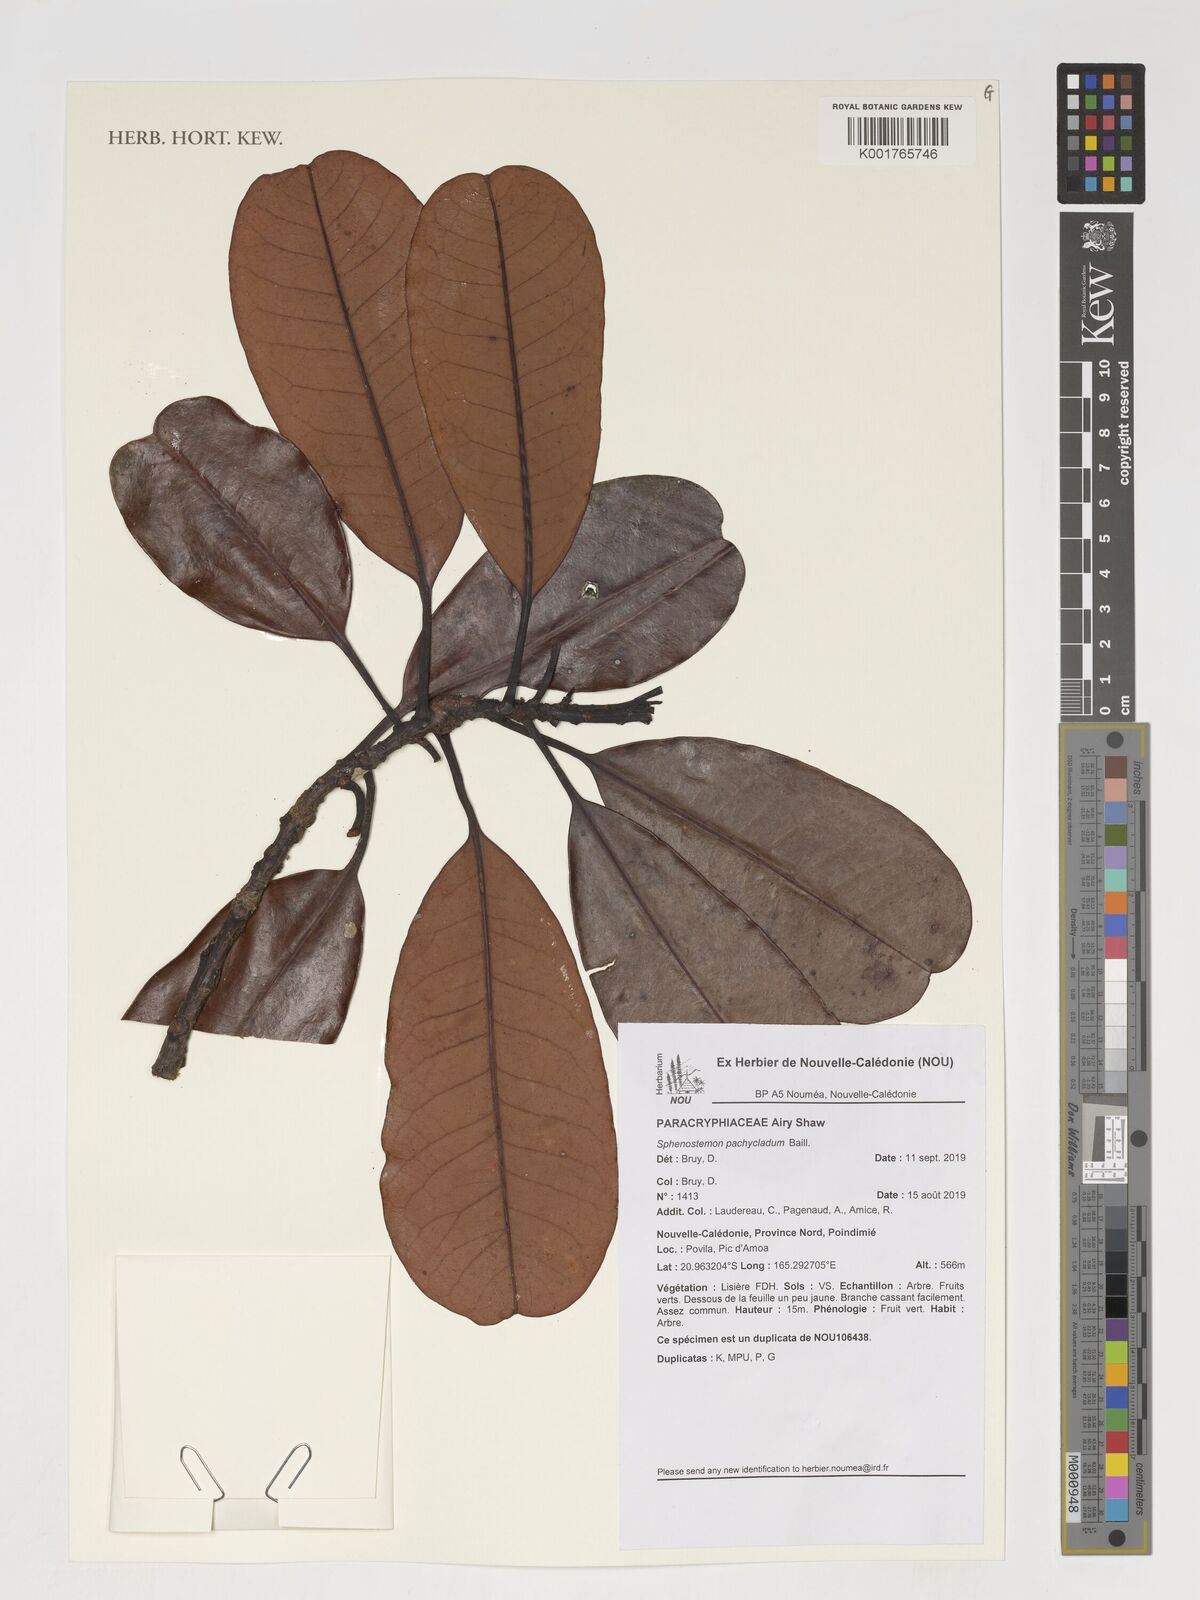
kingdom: Plantae
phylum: Tracheophyta
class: Magnoliopsida
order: Paracryphiales
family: Paracryphiaceae
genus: Sphenostemon
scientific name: Sphenostemon pachycladus
